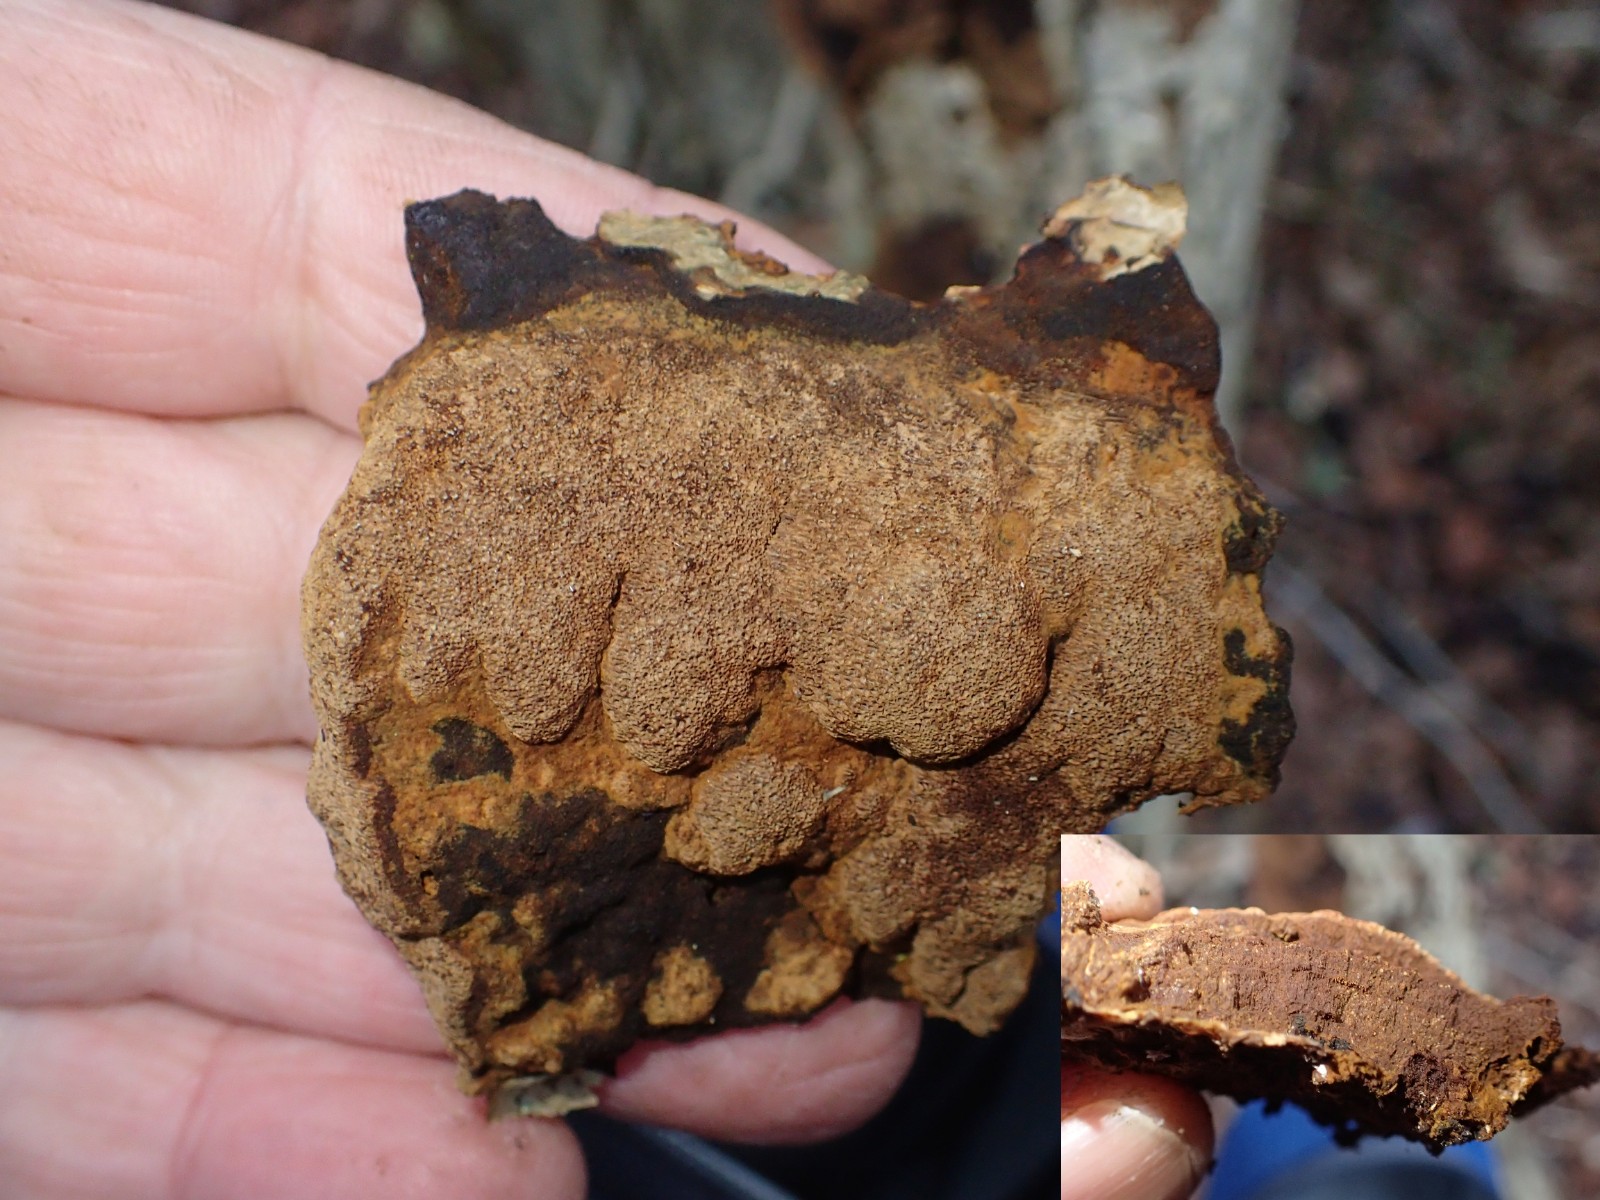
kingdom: Fungi
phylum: Basidiomycota
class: Agaricomycetes
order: Hymenochaetales
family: Hymenochaetaceae
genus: Fuscoporia
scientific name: Fuscoporia ferrea
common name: skorpe-ildporesvamp
